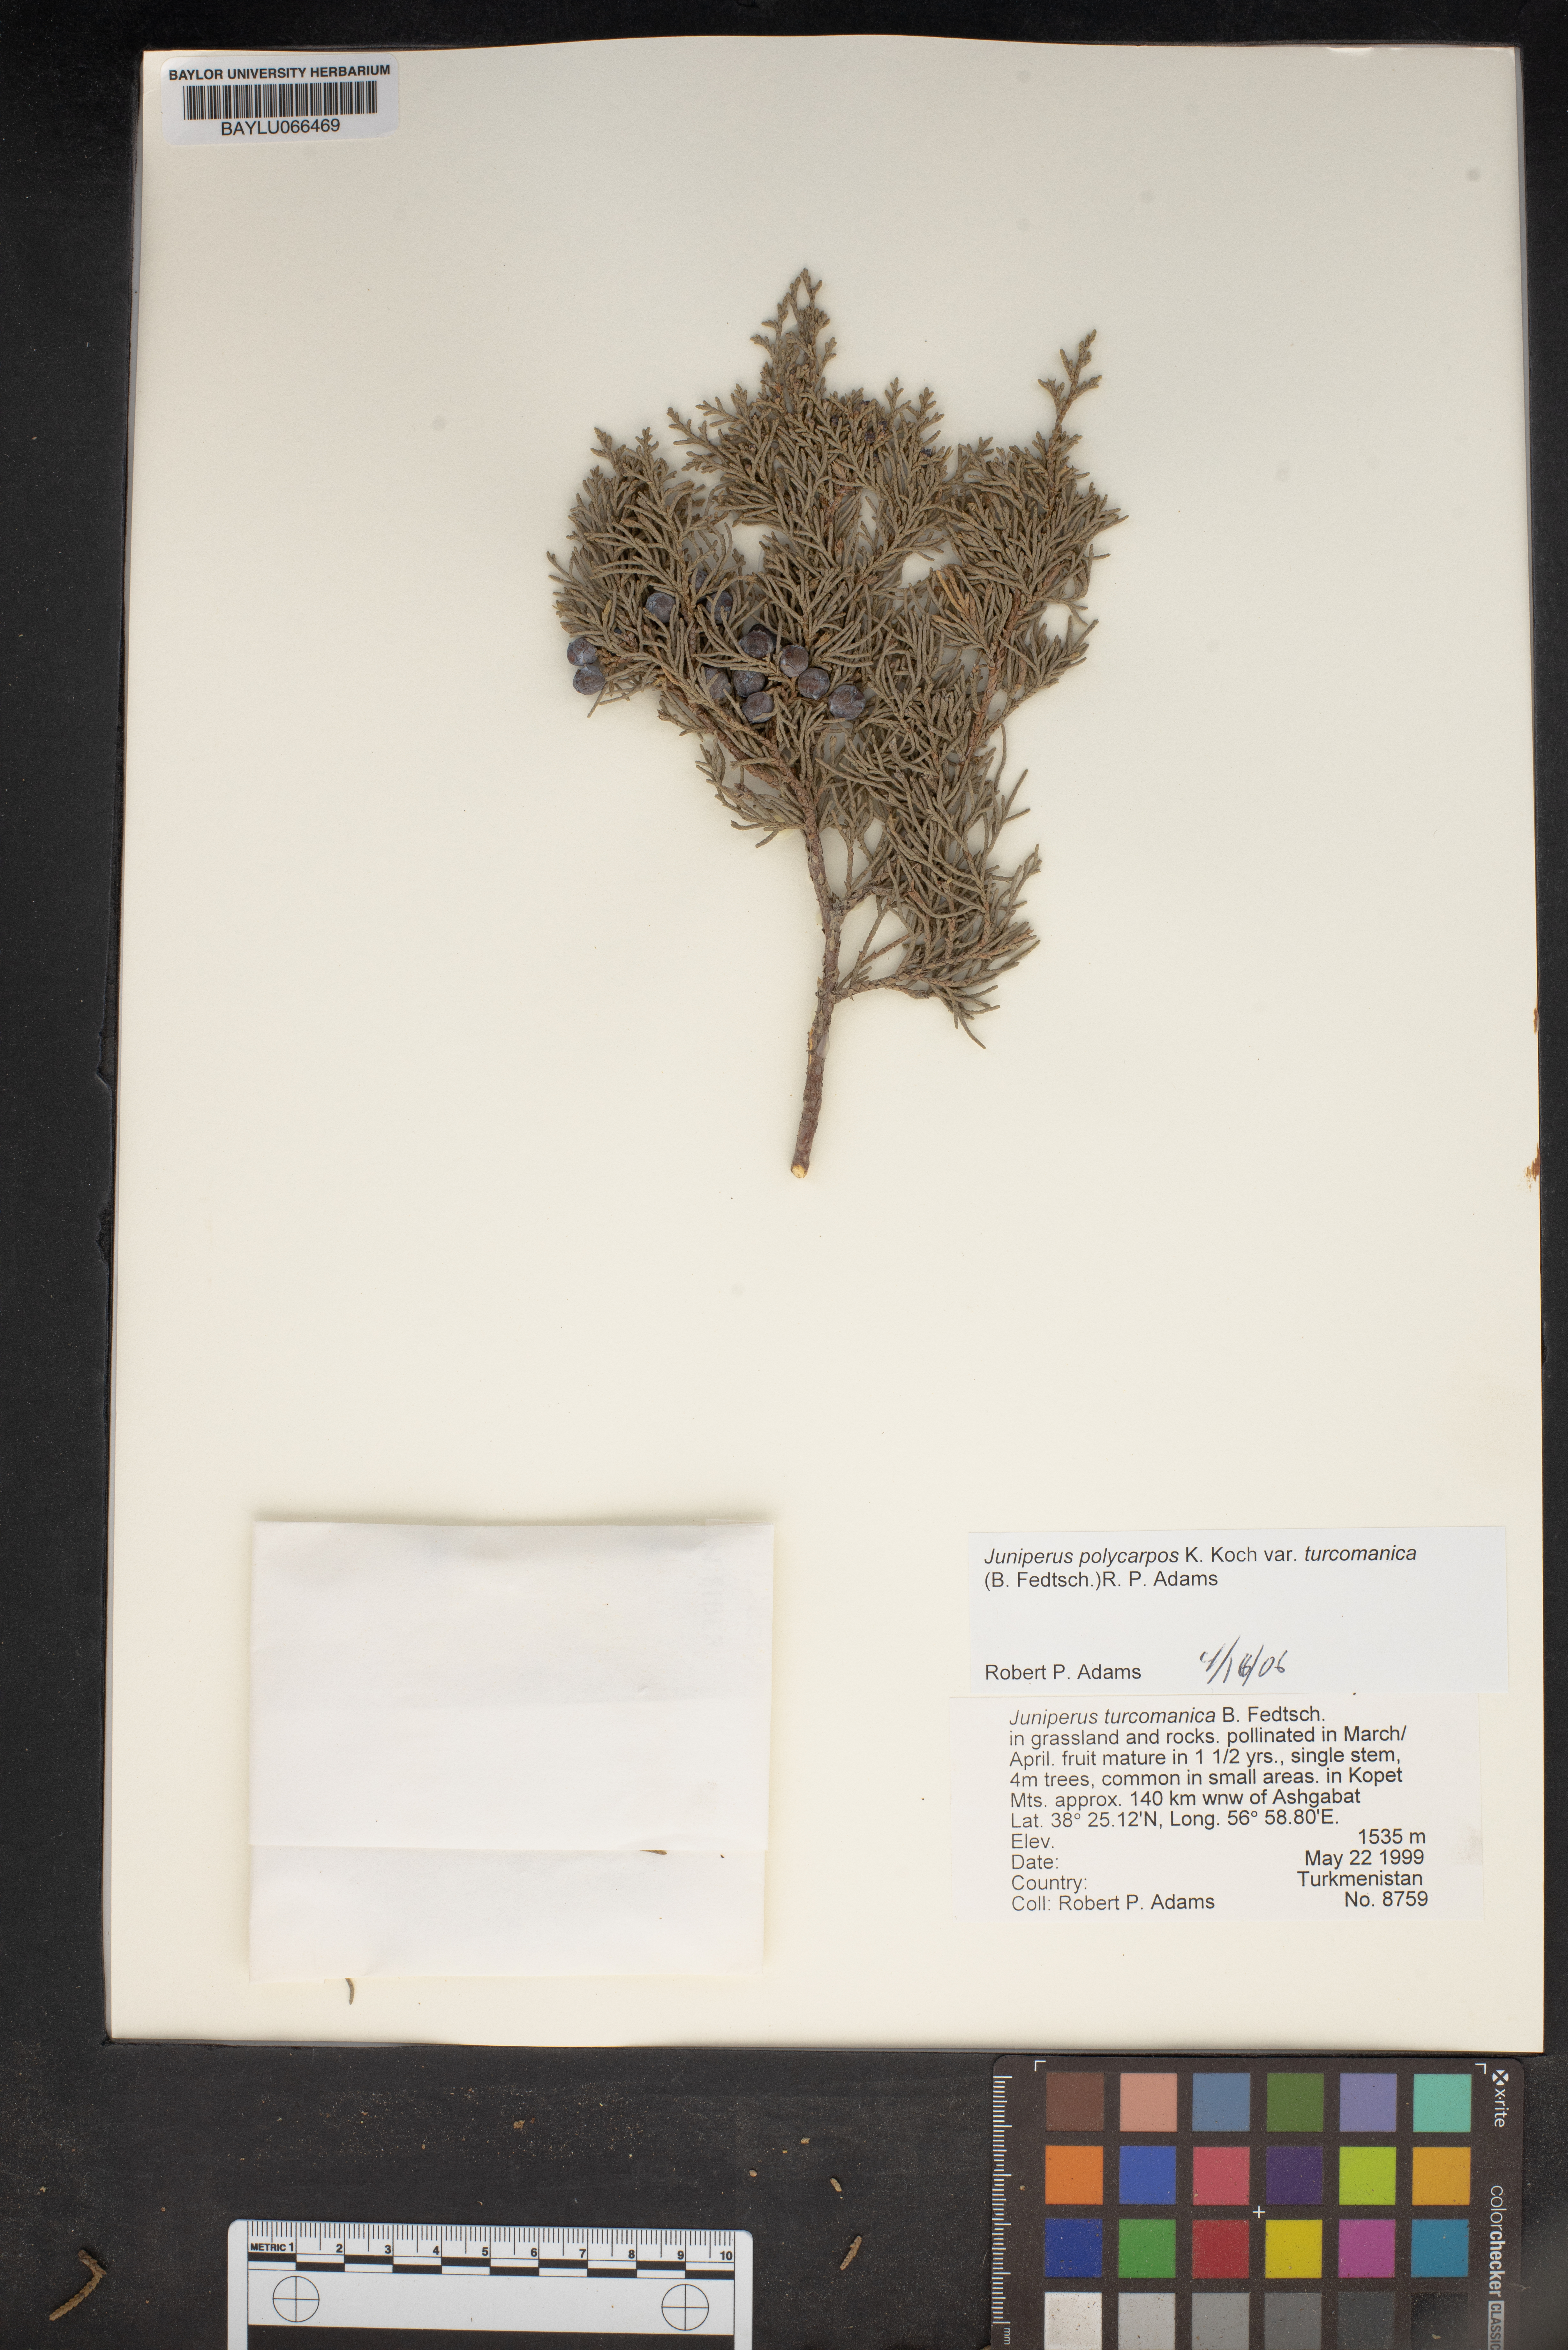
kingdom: Plantae
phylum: Tracheophyta
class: Pinopsida
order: Pinales
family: Cupressaceae
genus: Juniperus
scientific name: Juniperus pseudosabina
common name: Turkestan juniper
